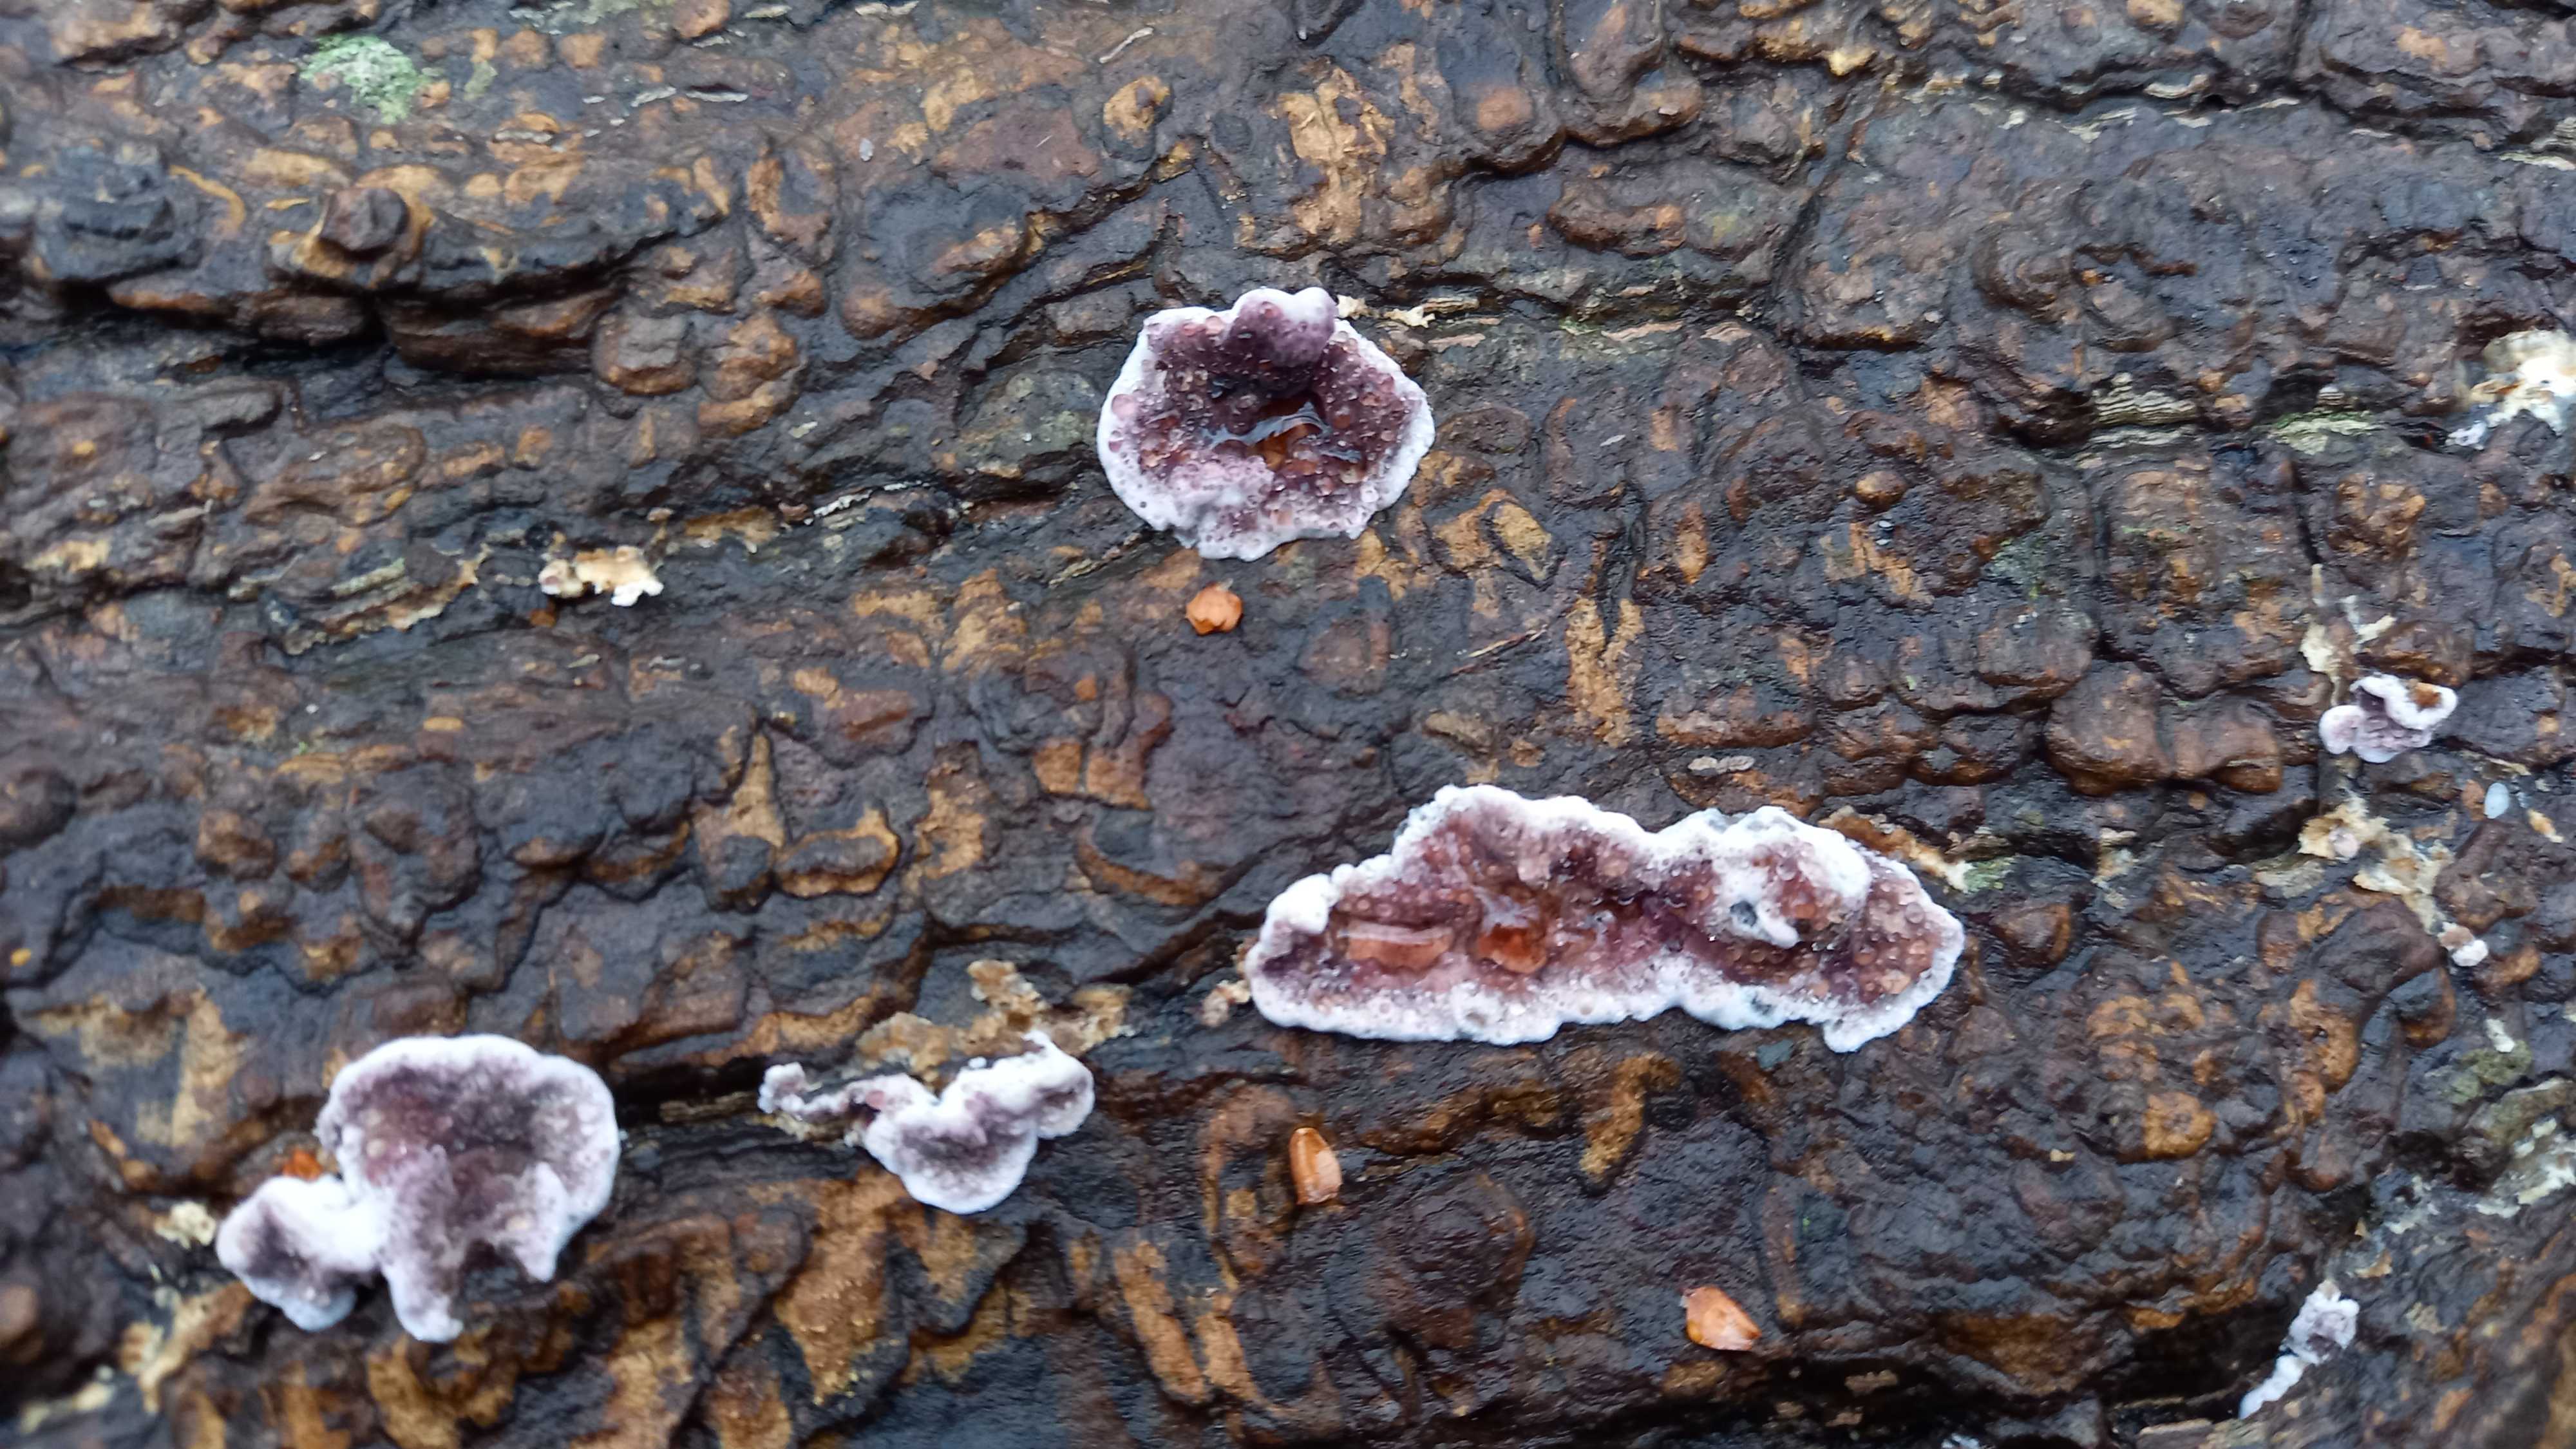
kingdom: Fungi
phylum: Basidiomycota
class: Agaricomycetes
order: Agaricales
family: Cyphellaceae
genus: Chondrostereum
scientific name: Chondrostereum purpureum
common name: purpurlædersvamp
